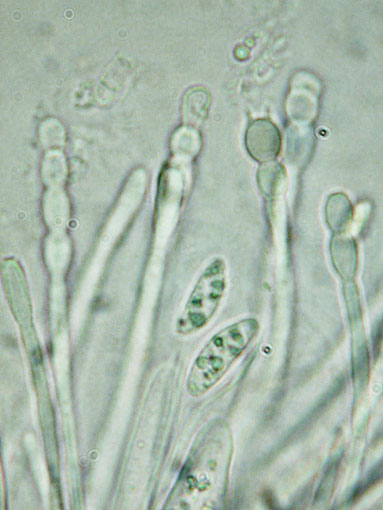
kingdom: Fungi
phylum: Ascomycota
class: Lecanoromycetes
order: Ostropales
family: Coenogoniaceae
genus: Coenogonium
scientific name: Coenogonium pineti
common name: liden vokslav
